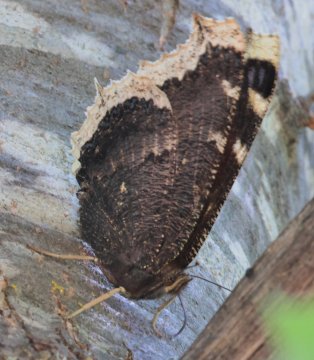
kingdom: Animalia
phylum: Arthropoda
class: Insecta
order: Lepidoptera
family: Nymphalidae
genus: Nymphalis
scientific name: Nymphalis antiopa
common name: Mourning Cloak
